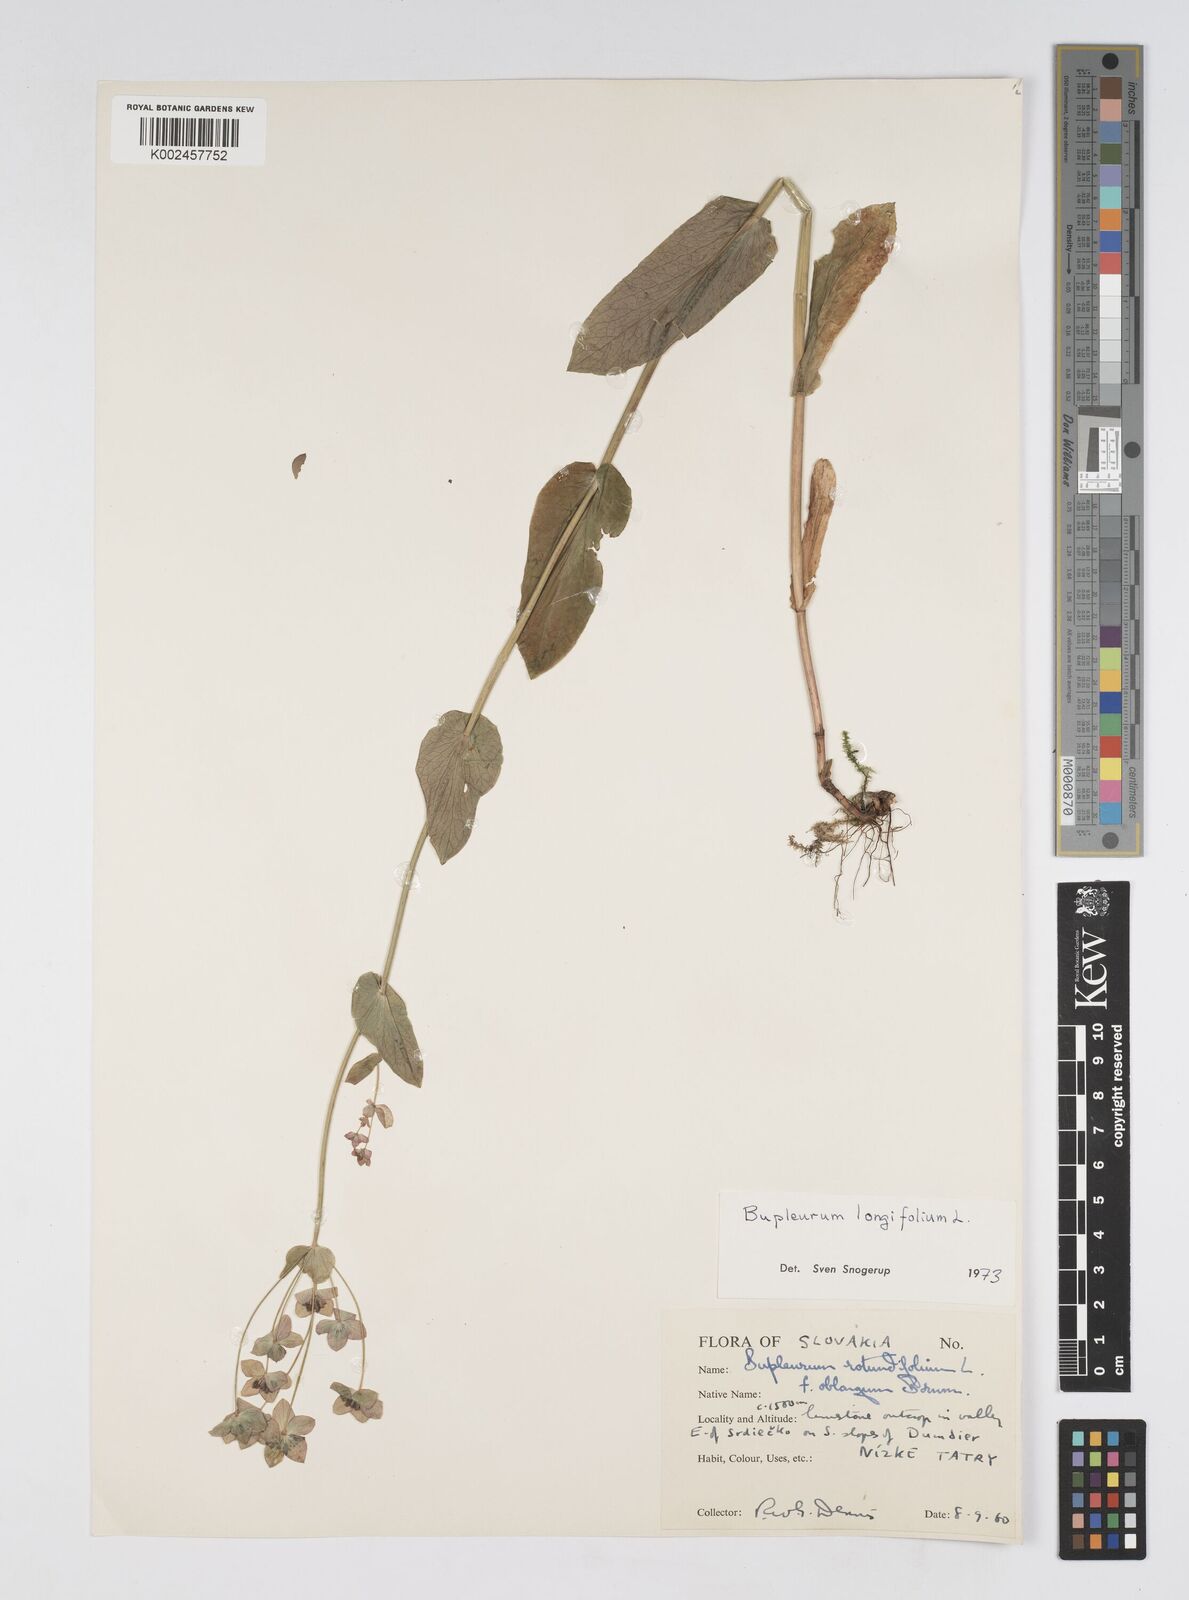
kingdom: Plantae
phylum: Tracheophyta
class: Magnoliopsida
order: Apiales
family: Apiaceae
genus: Bupleurum
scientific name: Bupleurum longifolium
